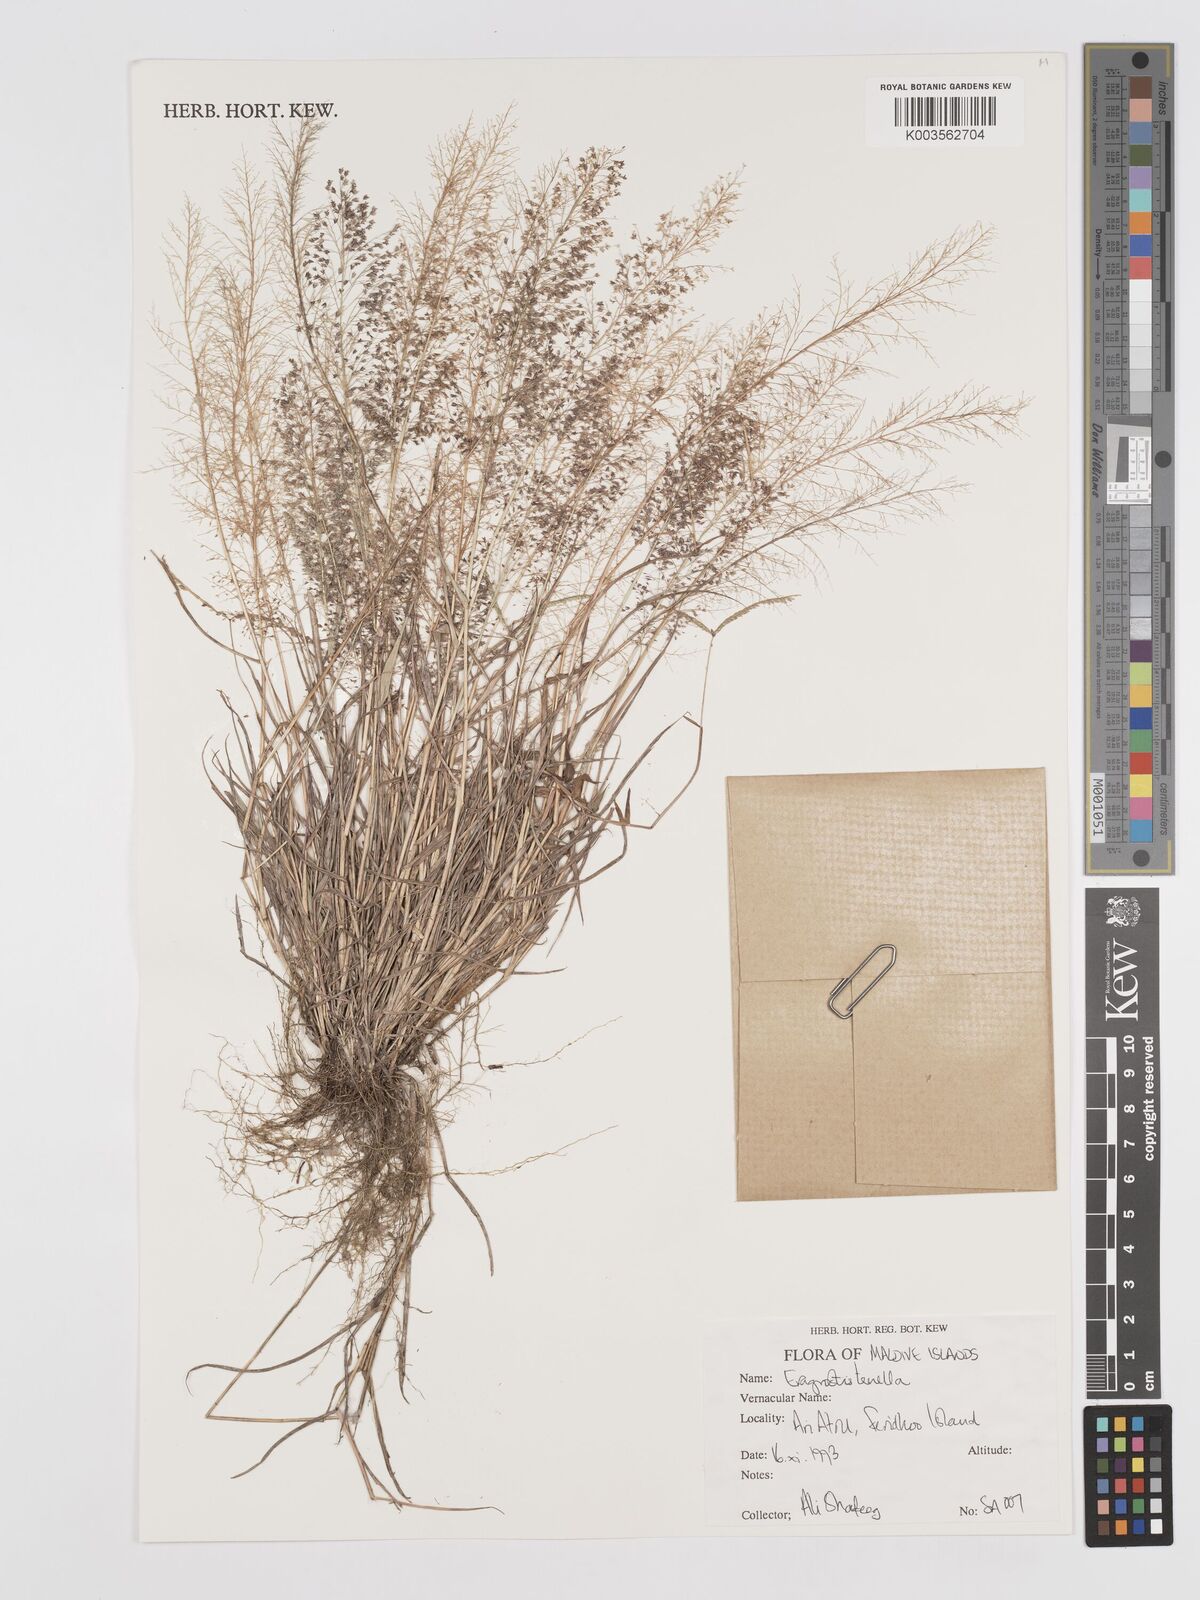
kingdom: Plantae
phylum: Tracheophyta
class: Liliopsida
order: Poales
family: Poaceae
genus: Eragrostis
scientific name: Eragrostis tenella
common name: Japanese lovegrass
